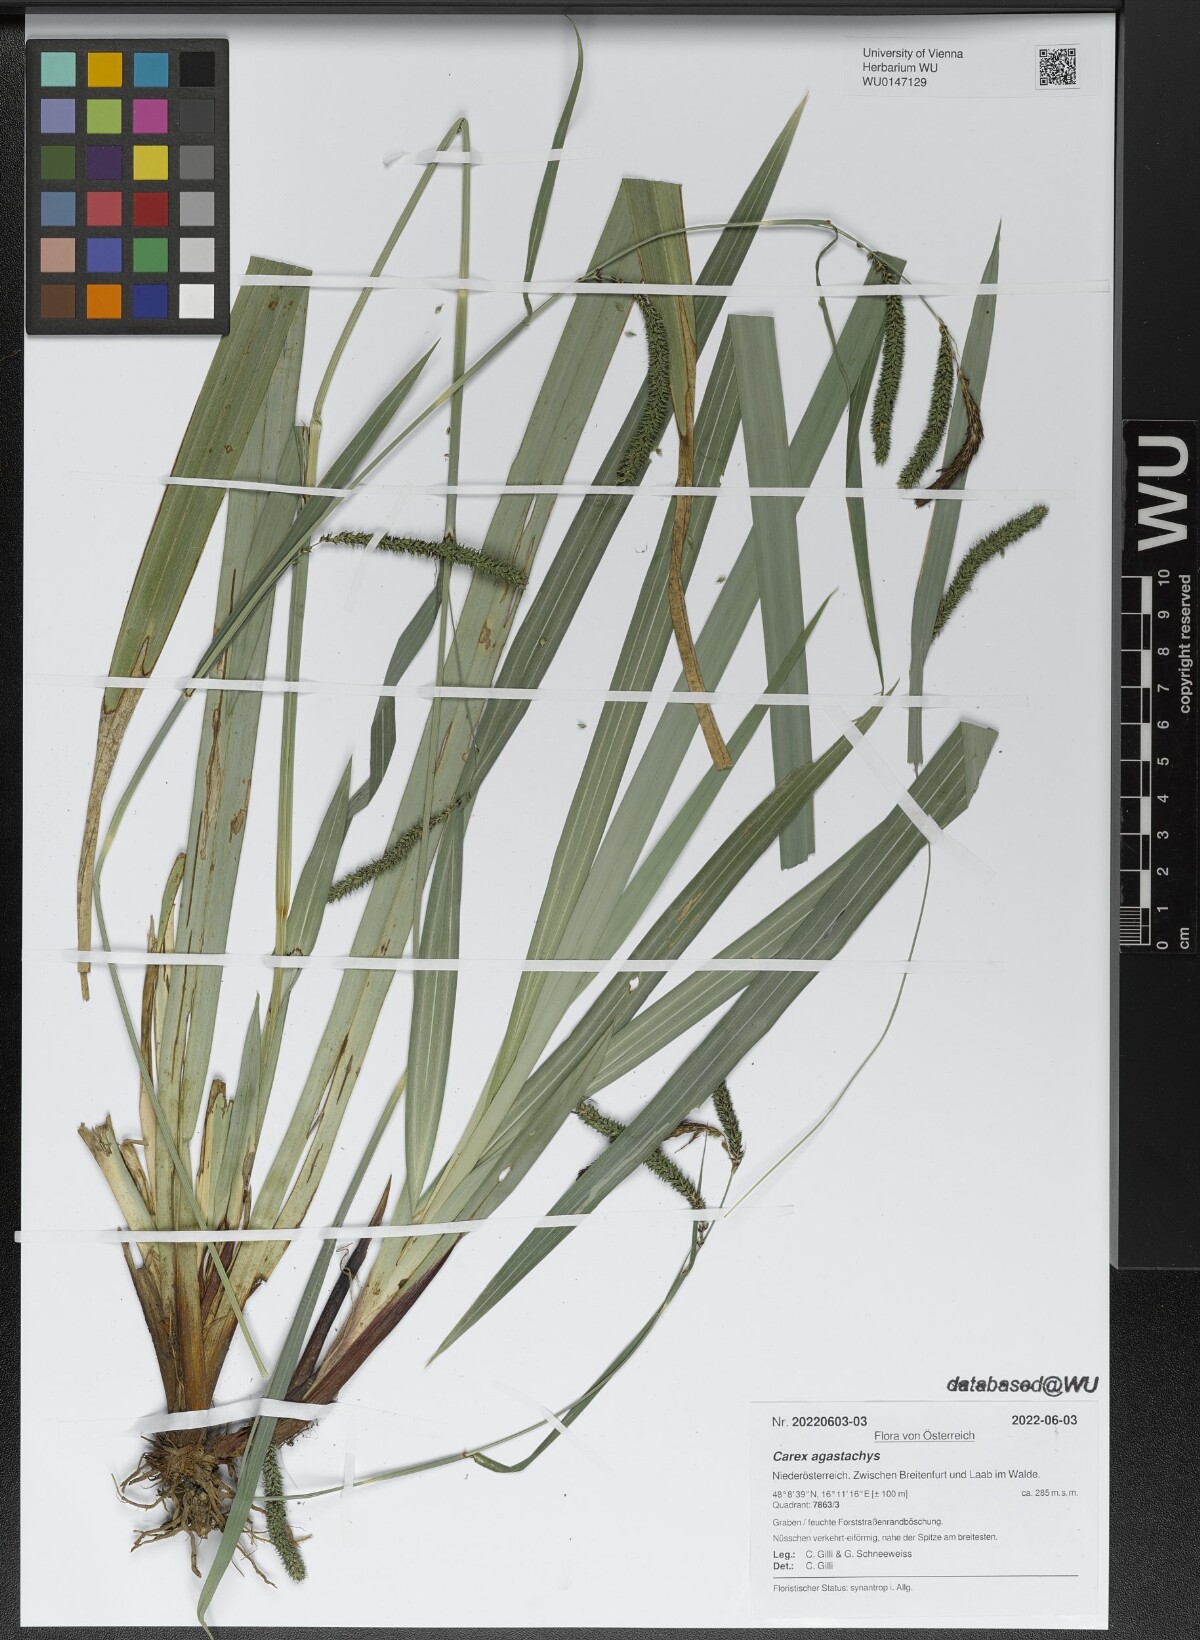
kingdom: Plantae
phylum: Tracheophyta
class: Liliopsida
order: Poales
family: Cyperaceae
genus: Carex
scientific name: Carex agastachys
